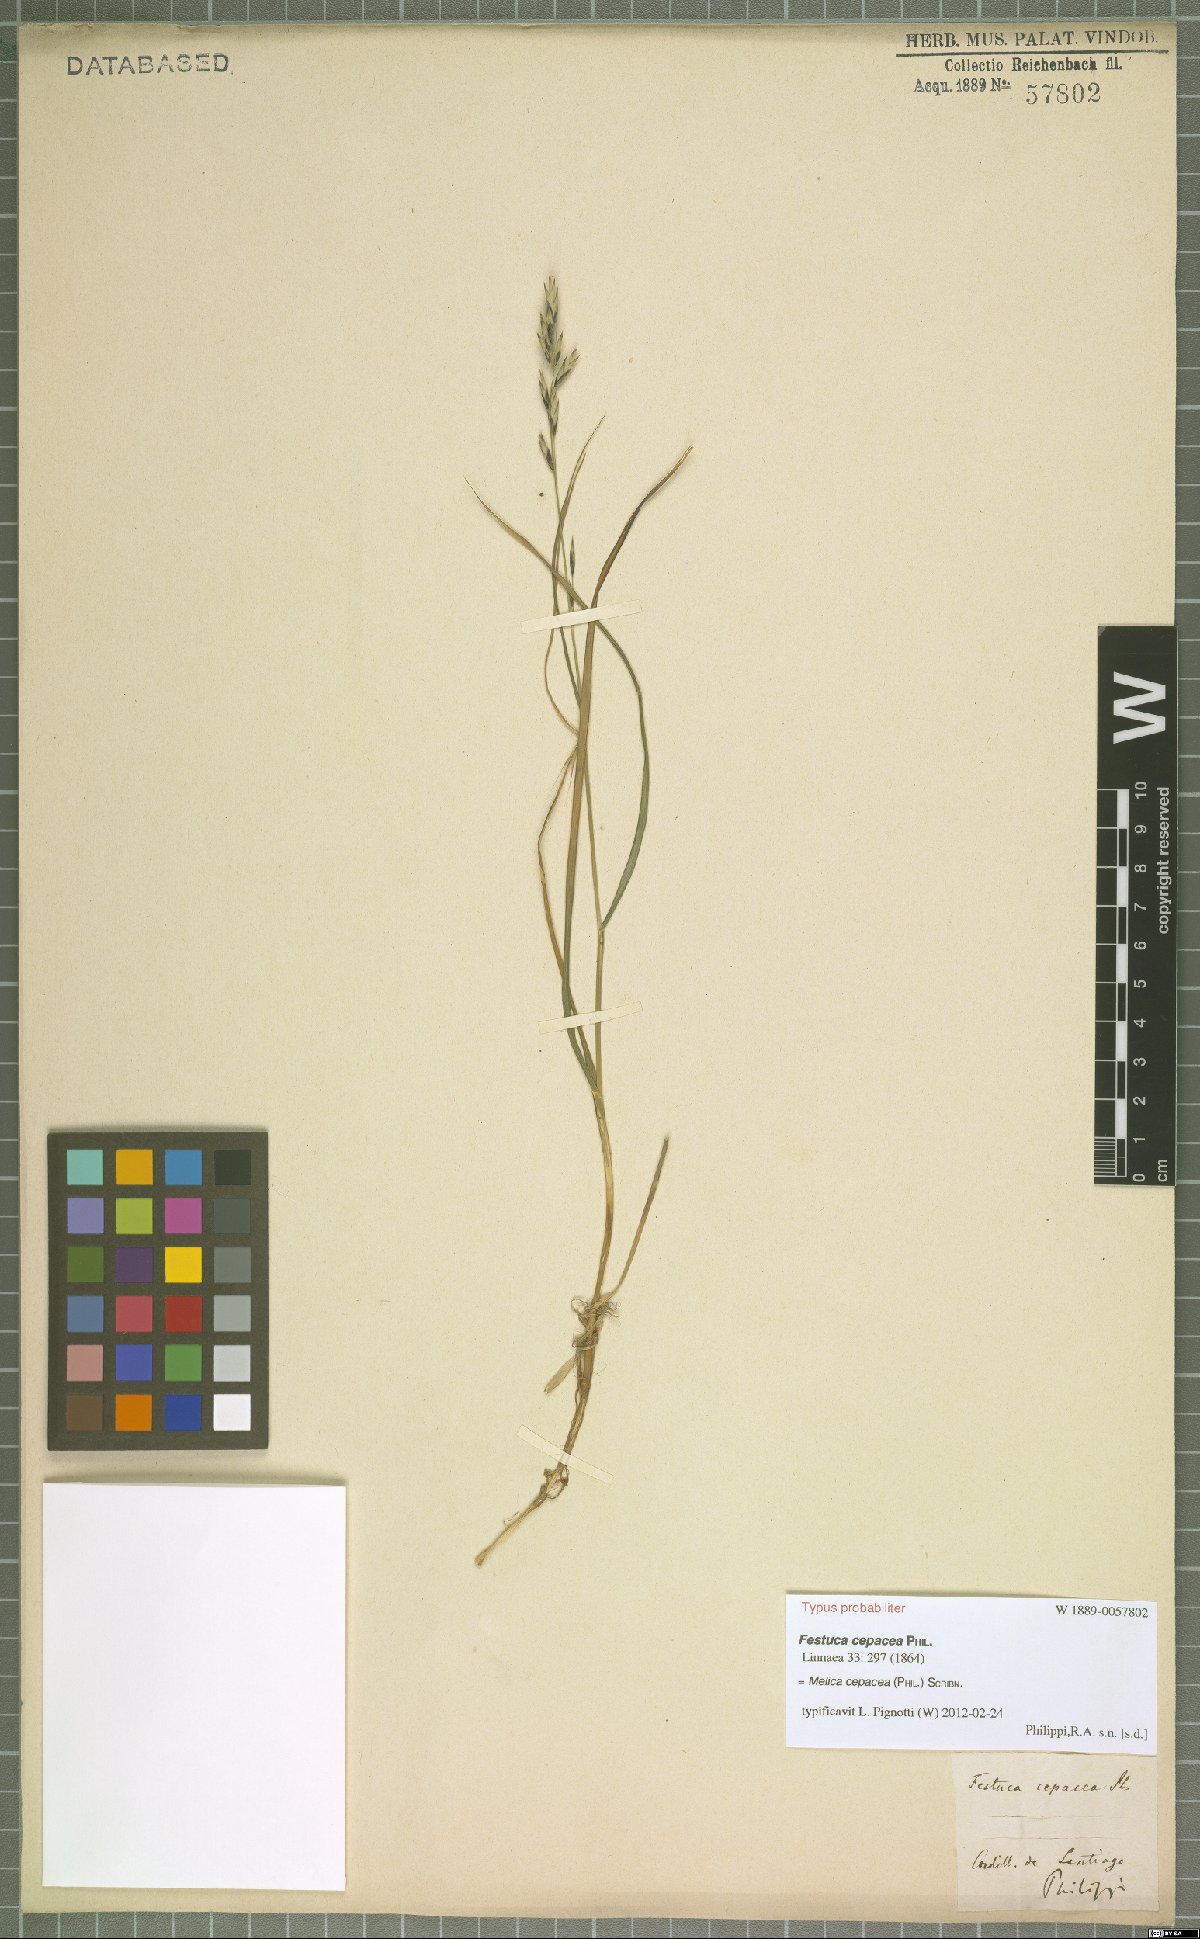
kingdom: Plantae
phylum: Tracheophyta
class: Liliopsida
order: Poales
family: Poaceae
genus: Melica
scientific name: Melica cepacea
